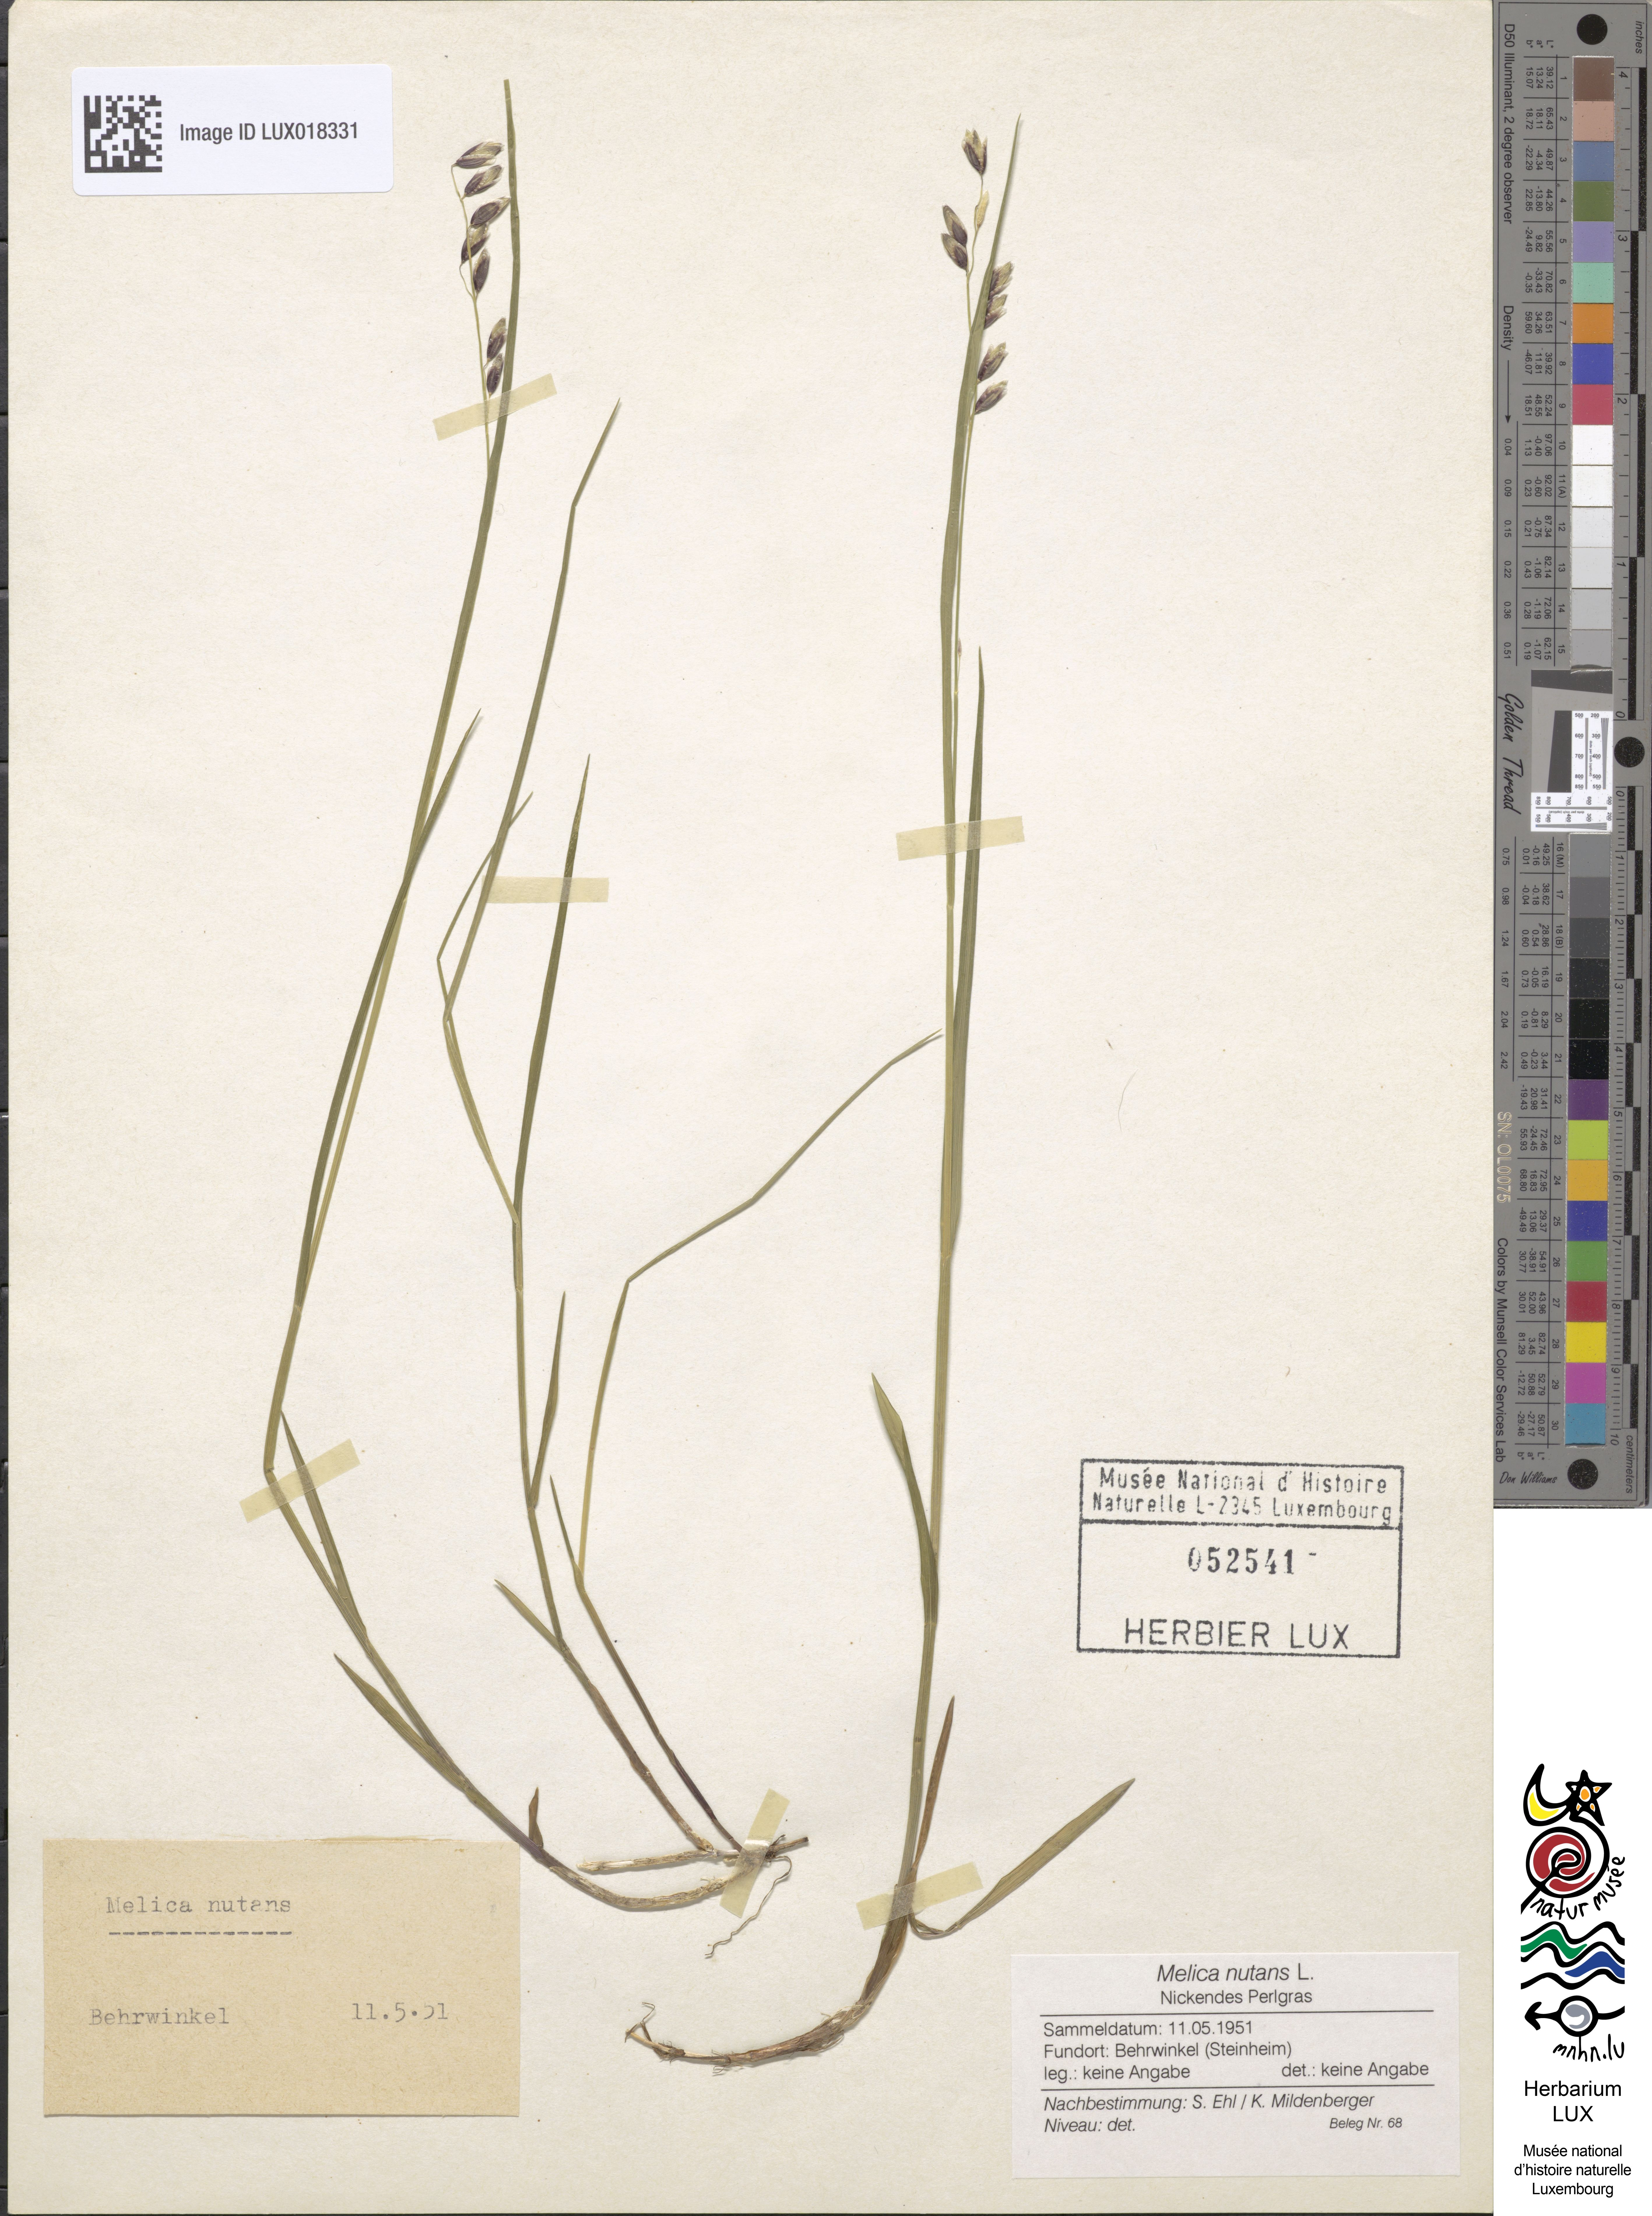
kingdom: Plantae
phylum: Tracheophyta
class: Liliopsida
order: Poales
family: Poaceae
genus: Melica
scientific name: Melica nutans
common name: Mountain melick
